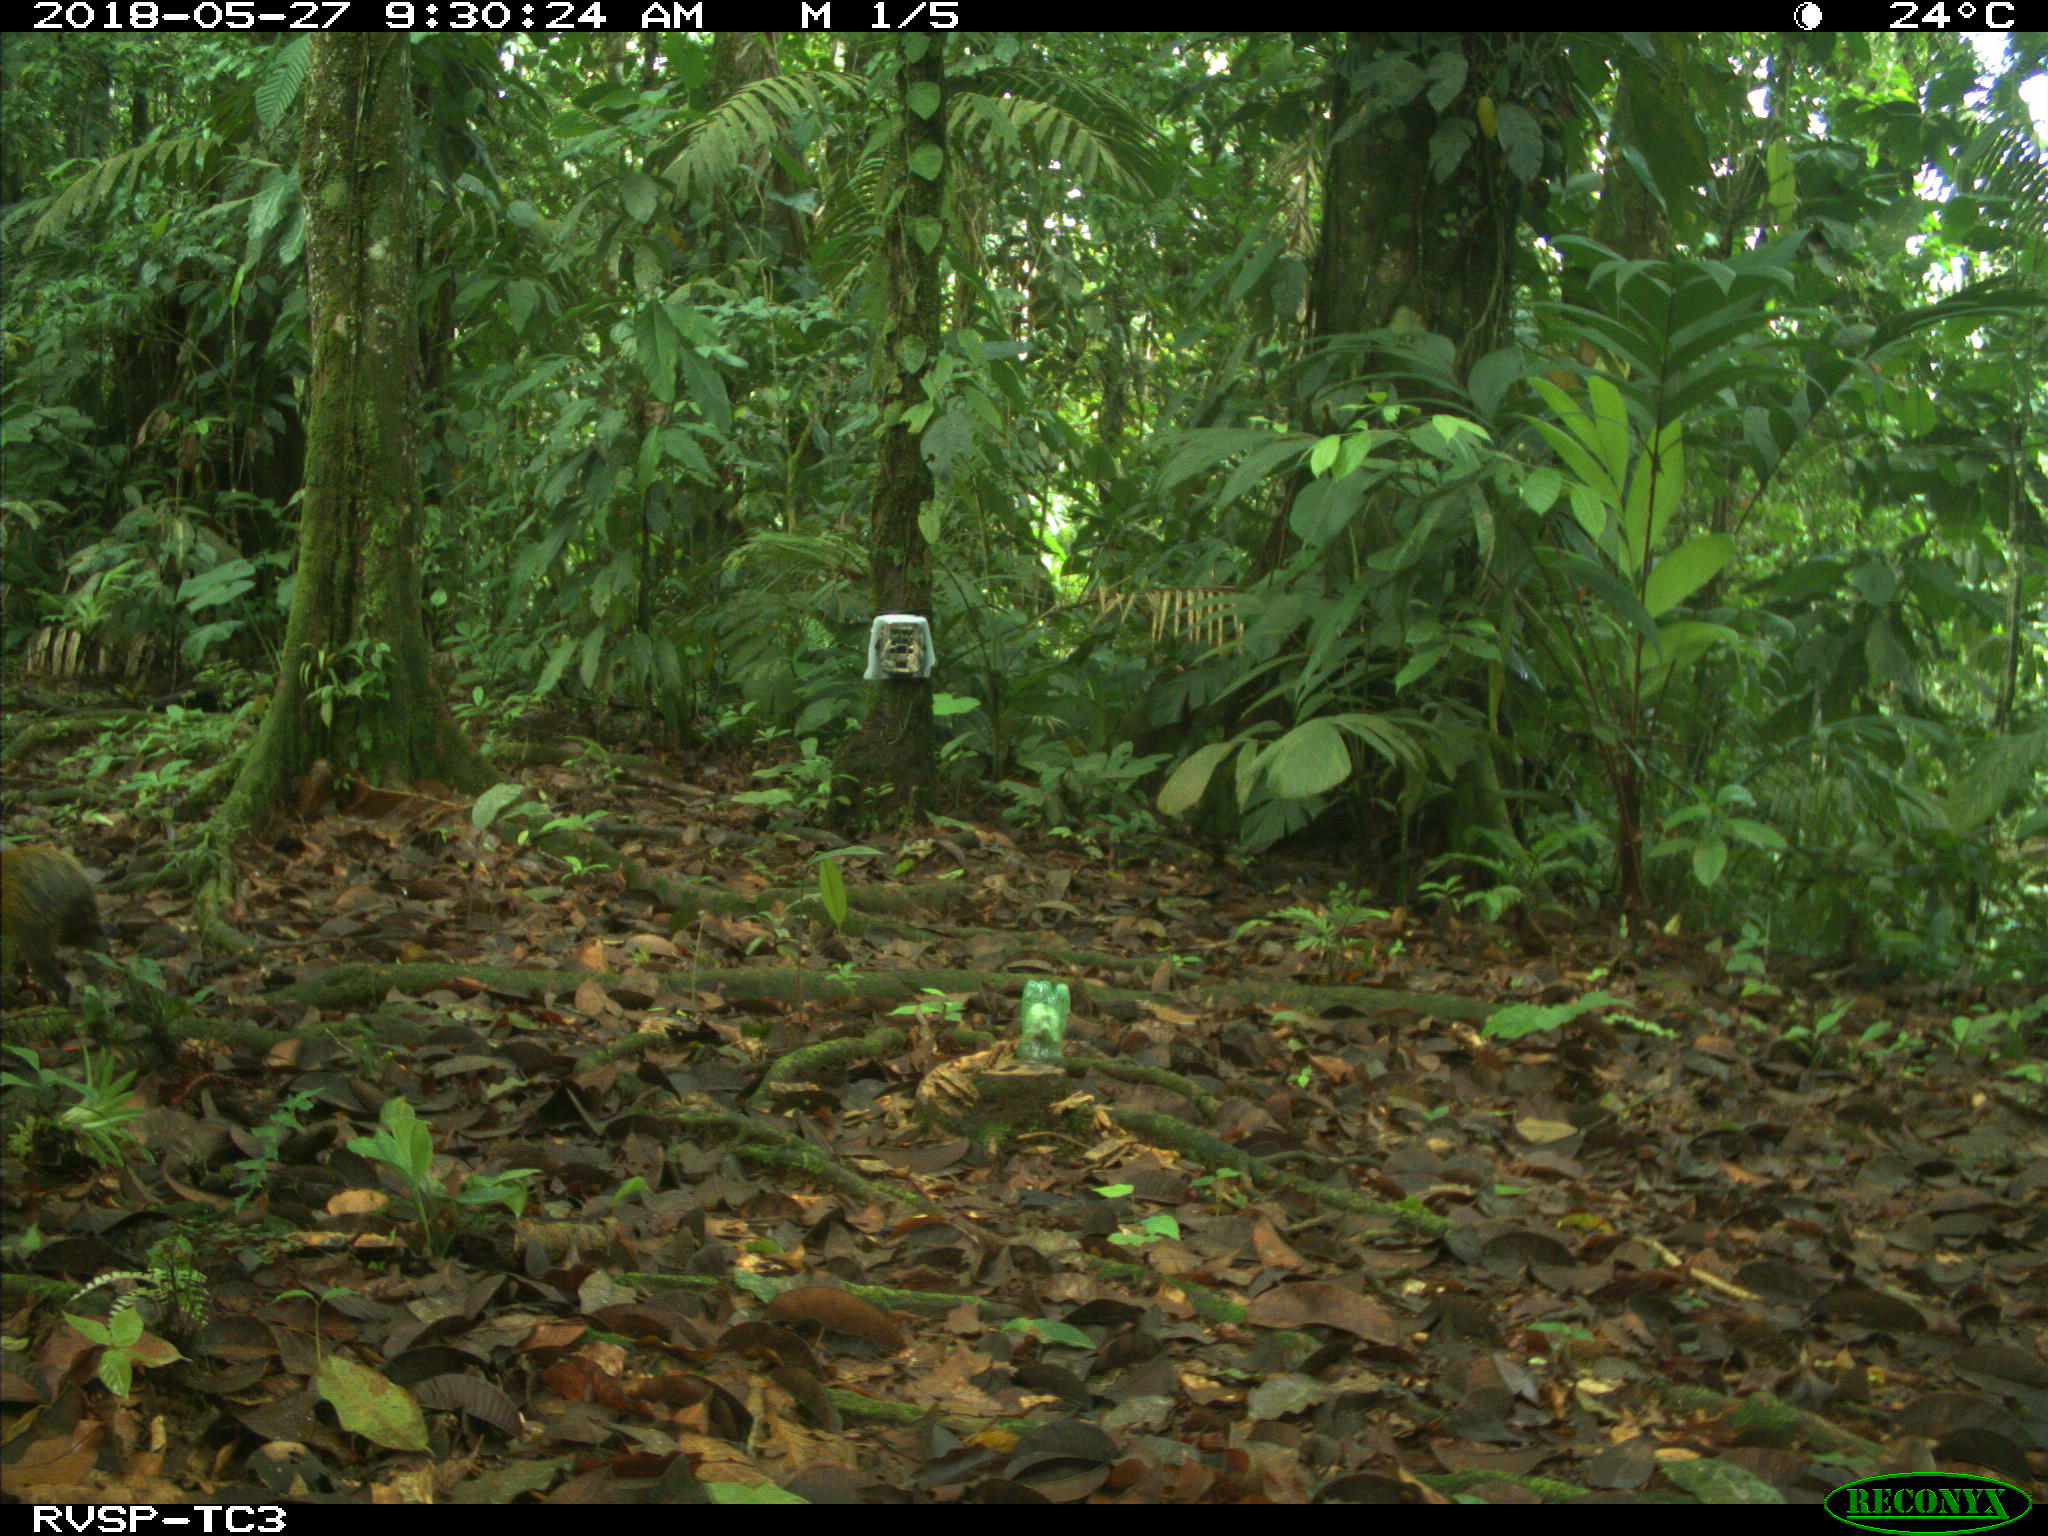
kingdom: Animalia
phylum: Chordata
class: Mammalia
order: Rodentia
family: Dasyproctidae
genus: Dasyprocta
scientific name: Dasyprocta punctata
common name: Central american agouti
